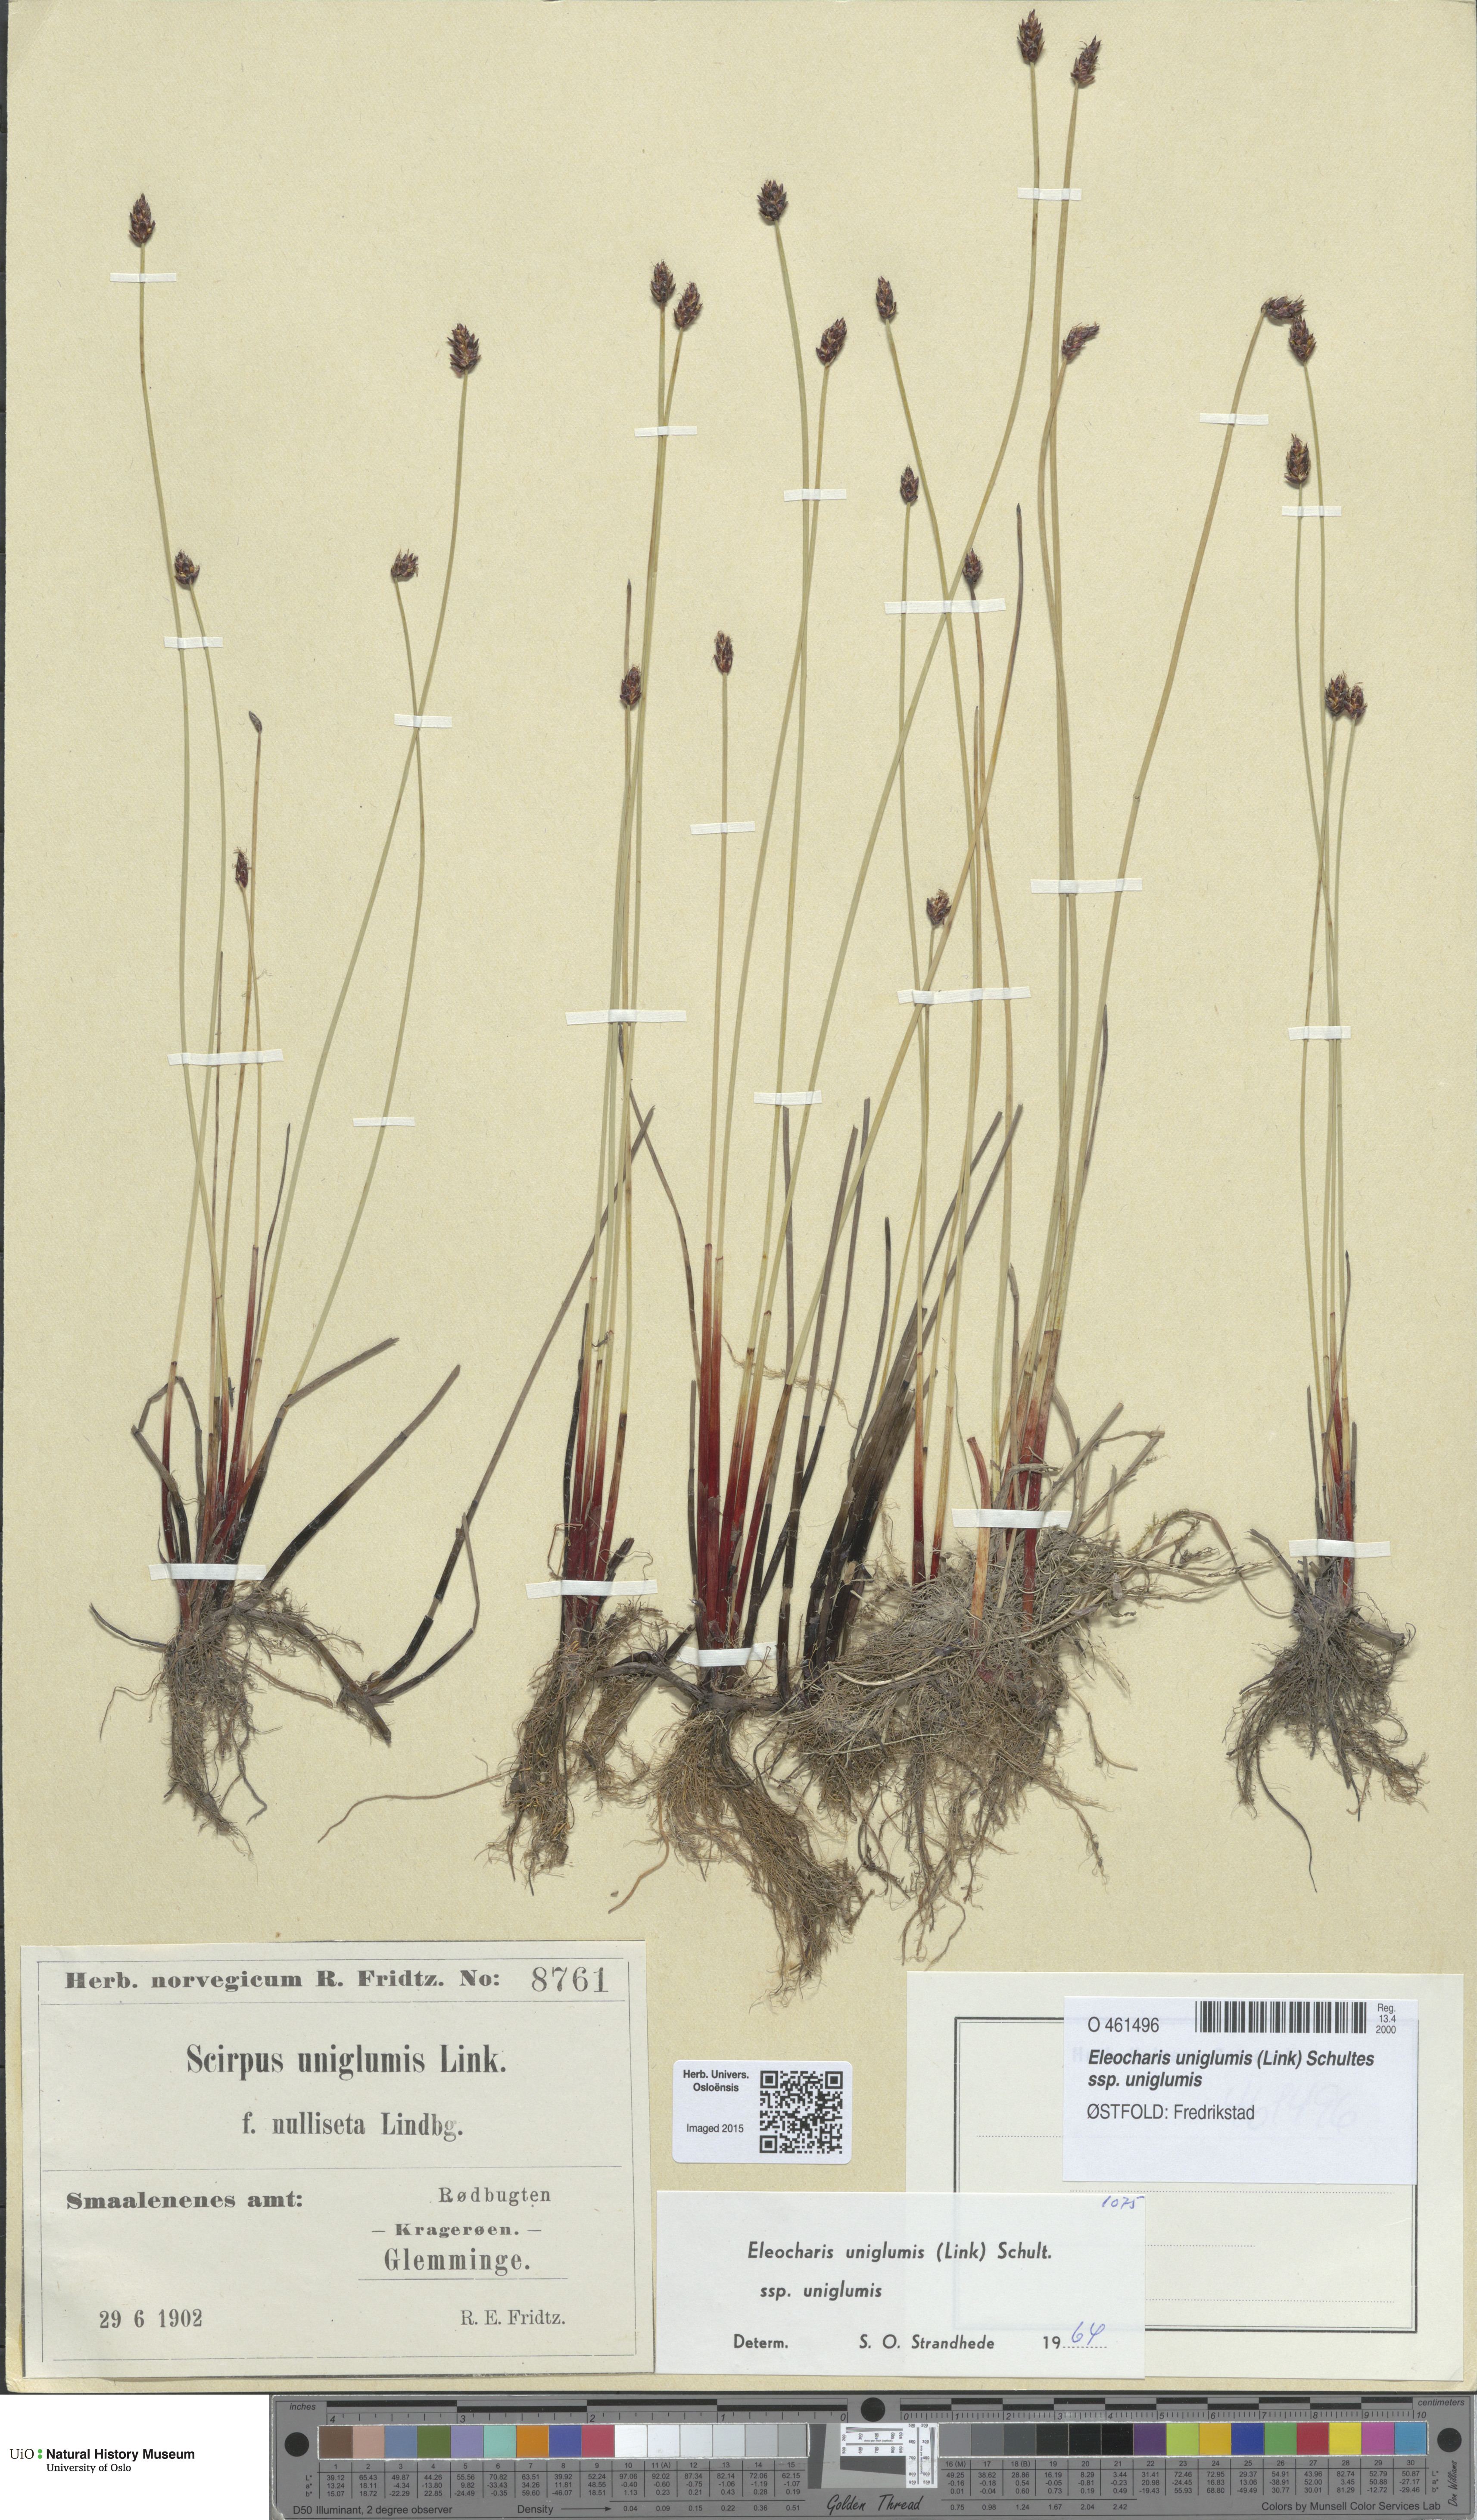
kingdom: Plantae
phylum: Tracheophyta
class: Liliopsida
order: Poales
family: Cyperaceae
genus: Eleocharis
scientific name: Eleocharis uniglumis
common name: Slender spike-rush
